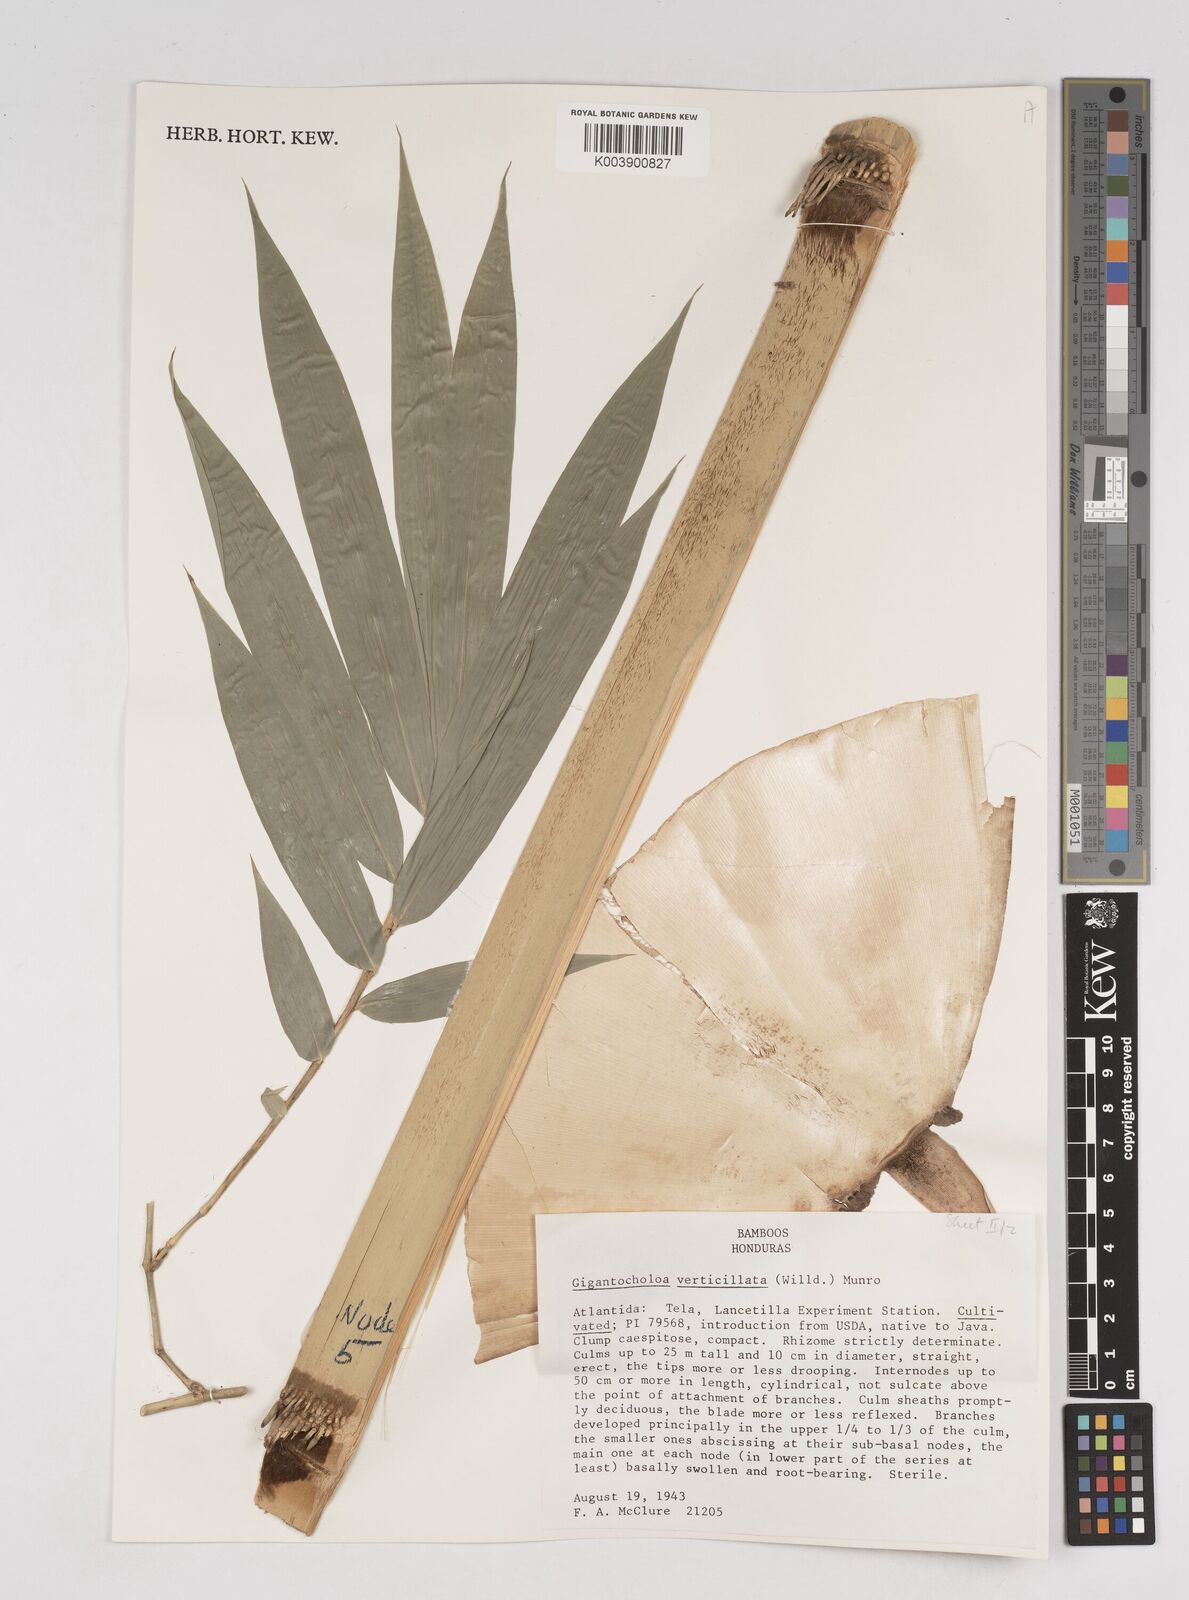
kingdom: Plantae
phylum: Tracheophyta
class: Liliopsida
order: Poales
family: Poaceae
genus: Gigantochloa
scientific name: Gigantochloa verticillata
